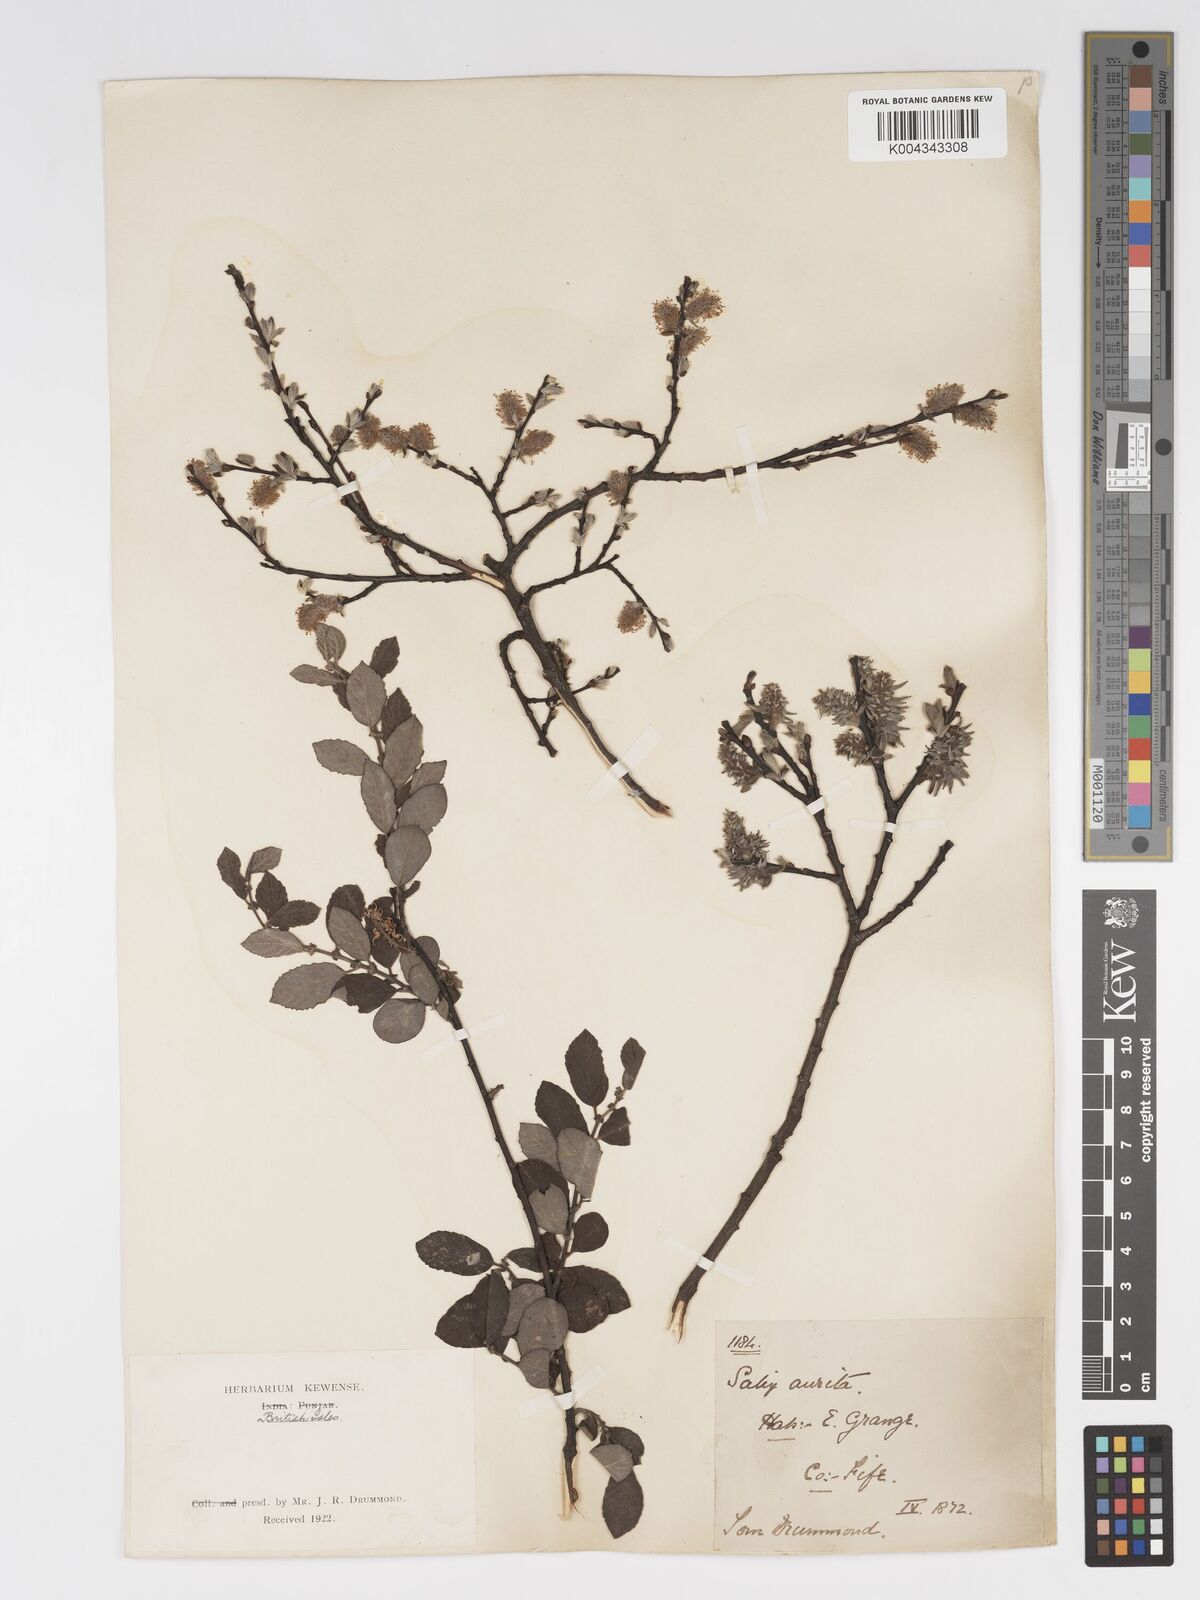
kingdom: Plantae
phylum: Tracheophyta
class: Magnoliopsida
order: Malpighiales
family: Salicaceae
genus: Salix
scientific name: Salix aurita
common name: Eared willow
